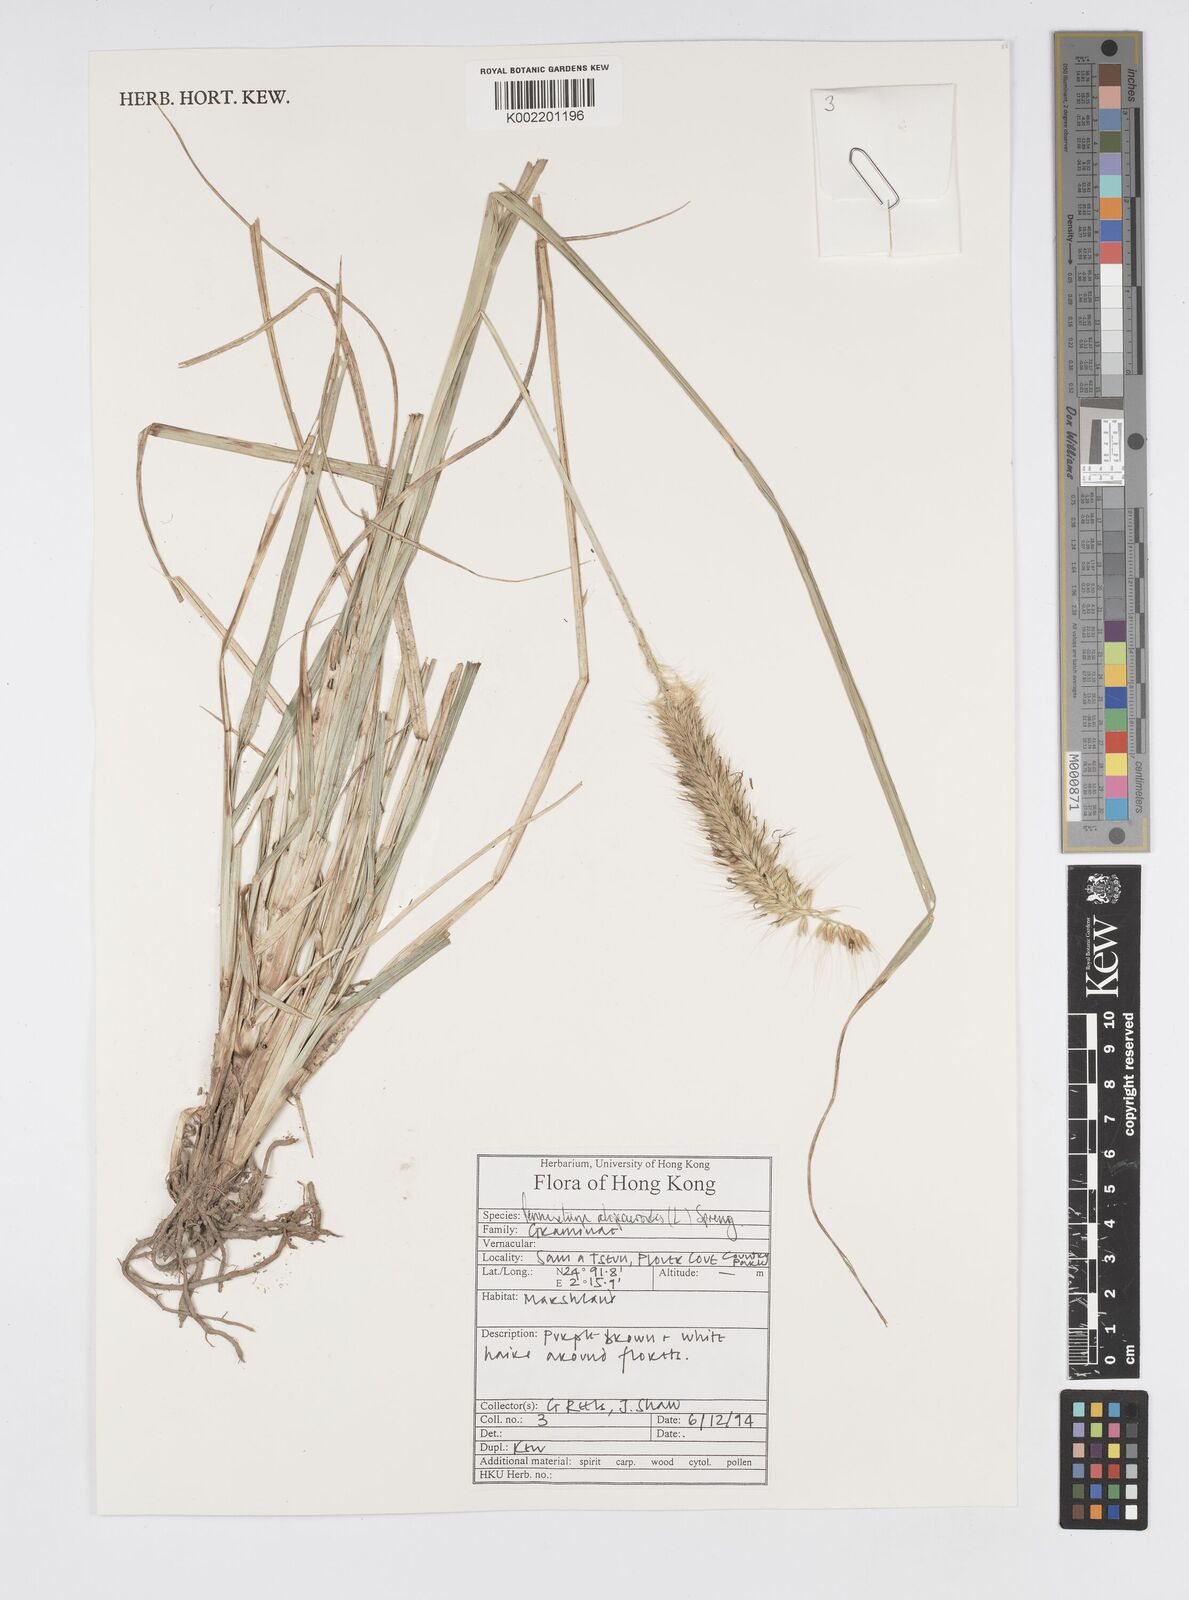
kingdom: Plantae
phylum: Tracheophyta
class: Liliopsida
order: Poales
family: Poaceae
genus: Cenchrus
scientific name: Cenchrus alopecuroides
